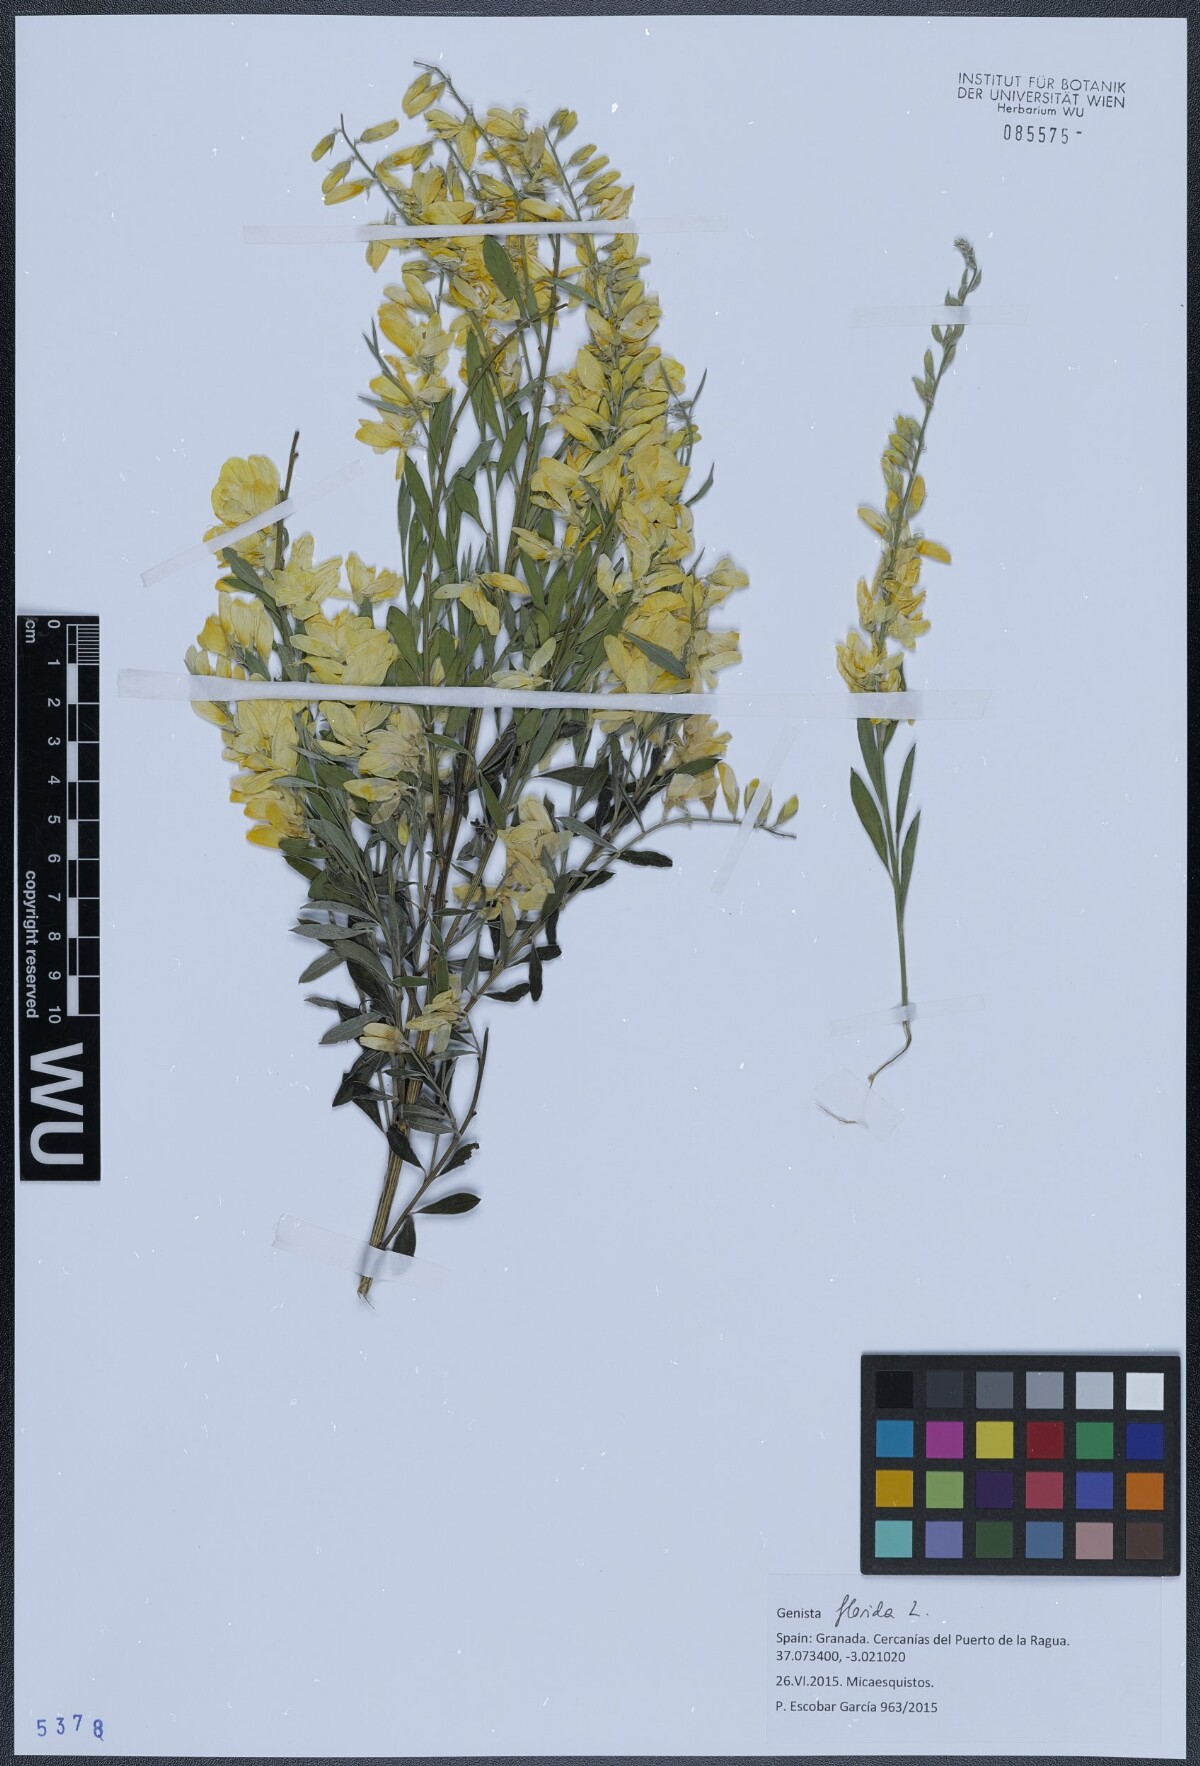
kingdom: Plantae
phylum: Tracheophyta
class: Magnoliopsida
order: Fabales
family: Fabaceae
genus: Genista
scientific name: Genista florida
